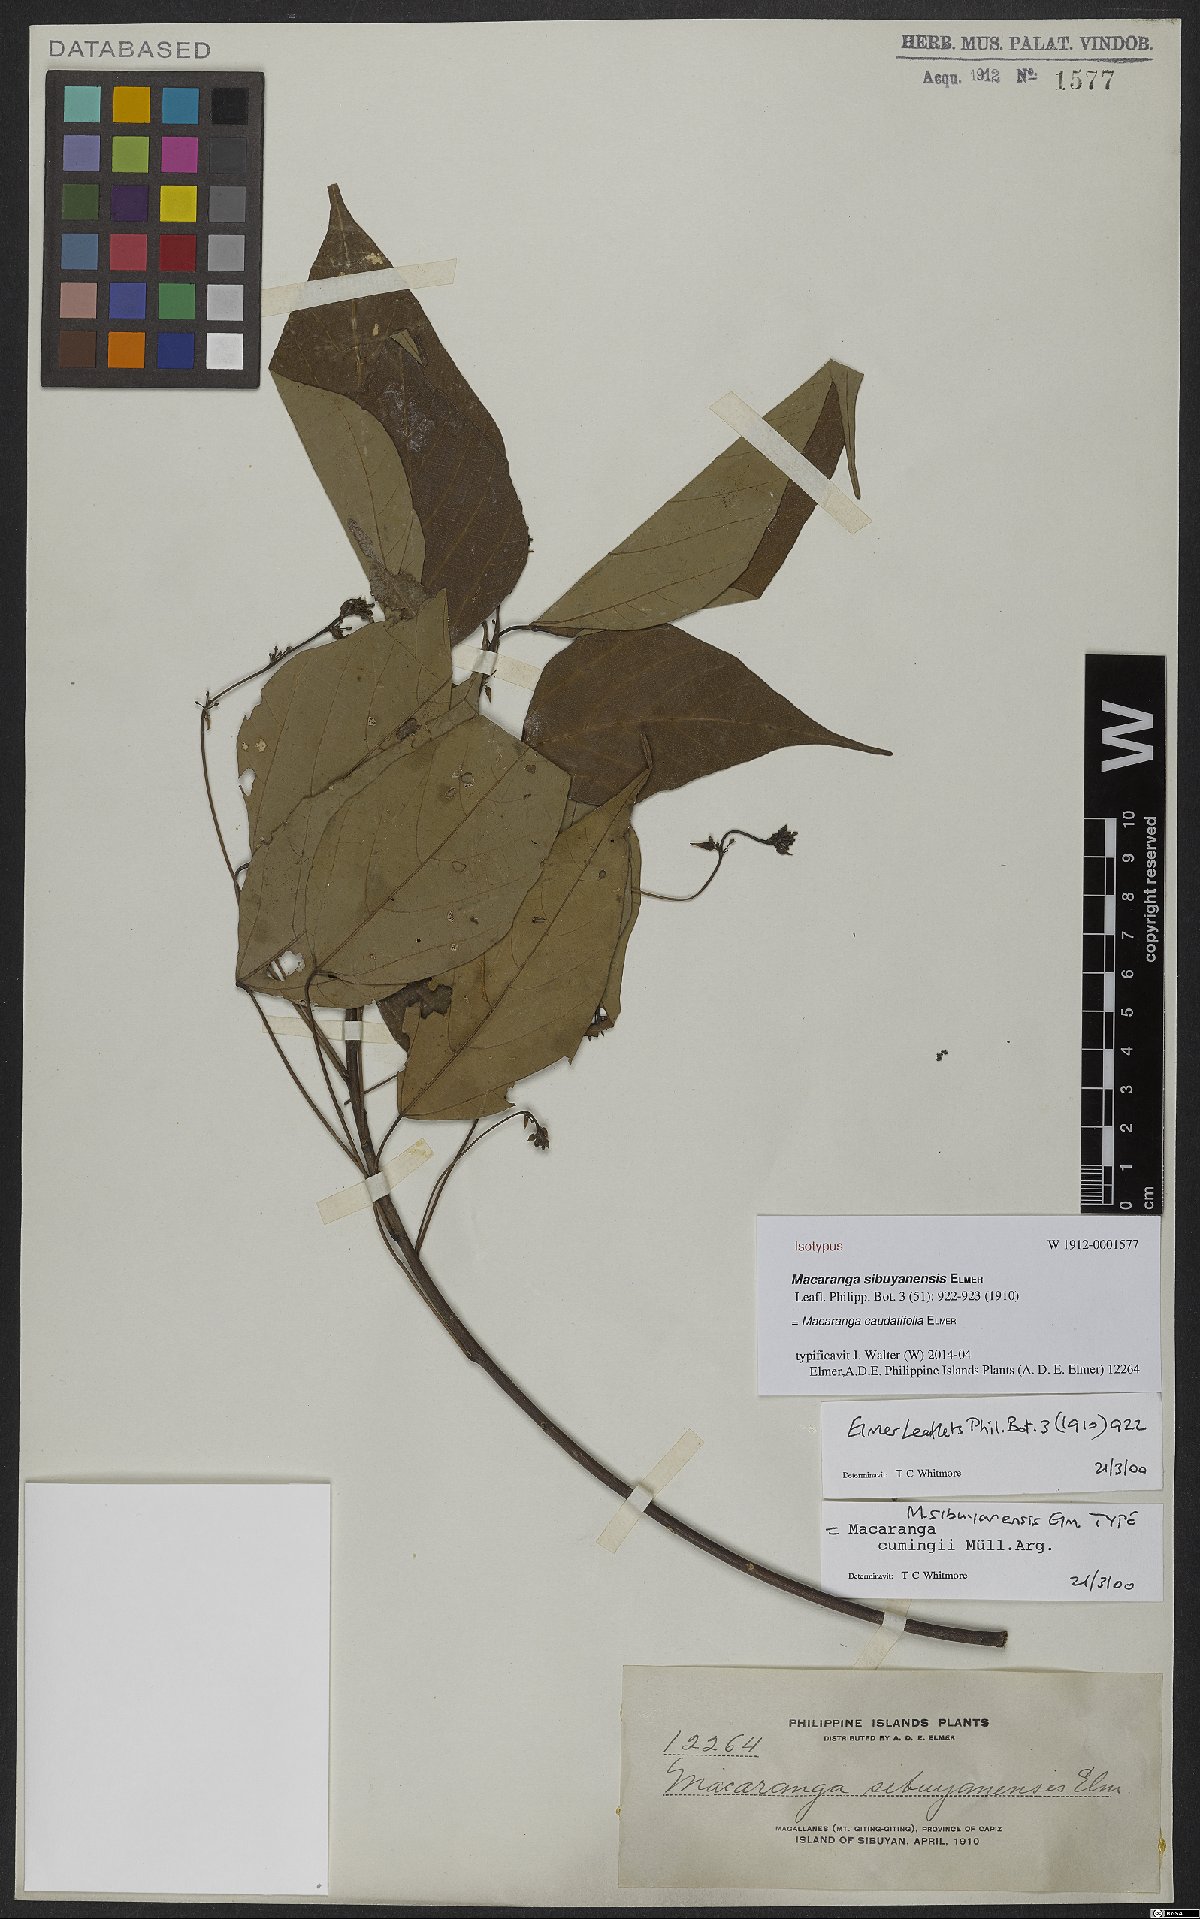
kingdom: Plantae
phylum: Tracheophyta
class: Magnoliopsida
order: Malpighiales
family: Euphorbiaceae
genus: Macaranga
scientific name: Macaranga caudatifolia
